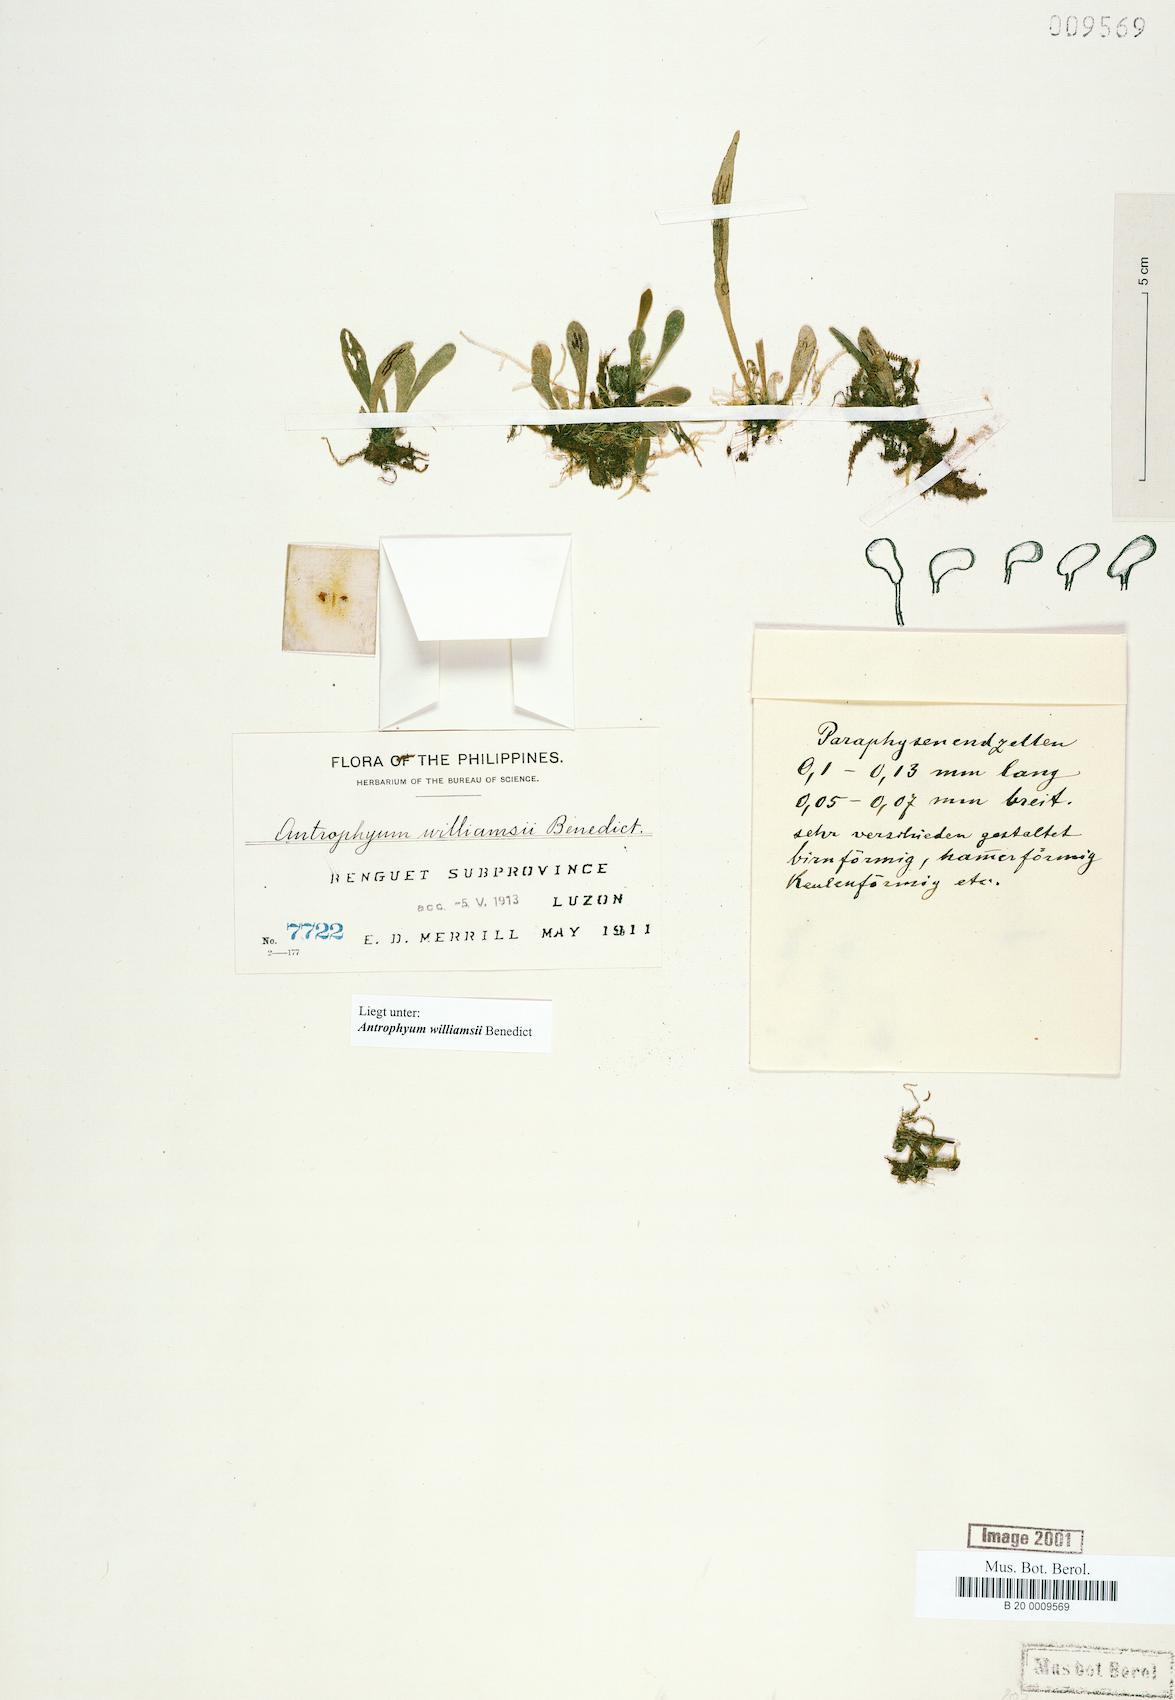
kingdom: Plantae
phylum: Tracheophyta
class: Polypodiopsida
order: Polypodiales
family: Pteridaceae
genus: Antrophyum
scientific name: Antrophyum williamsii
